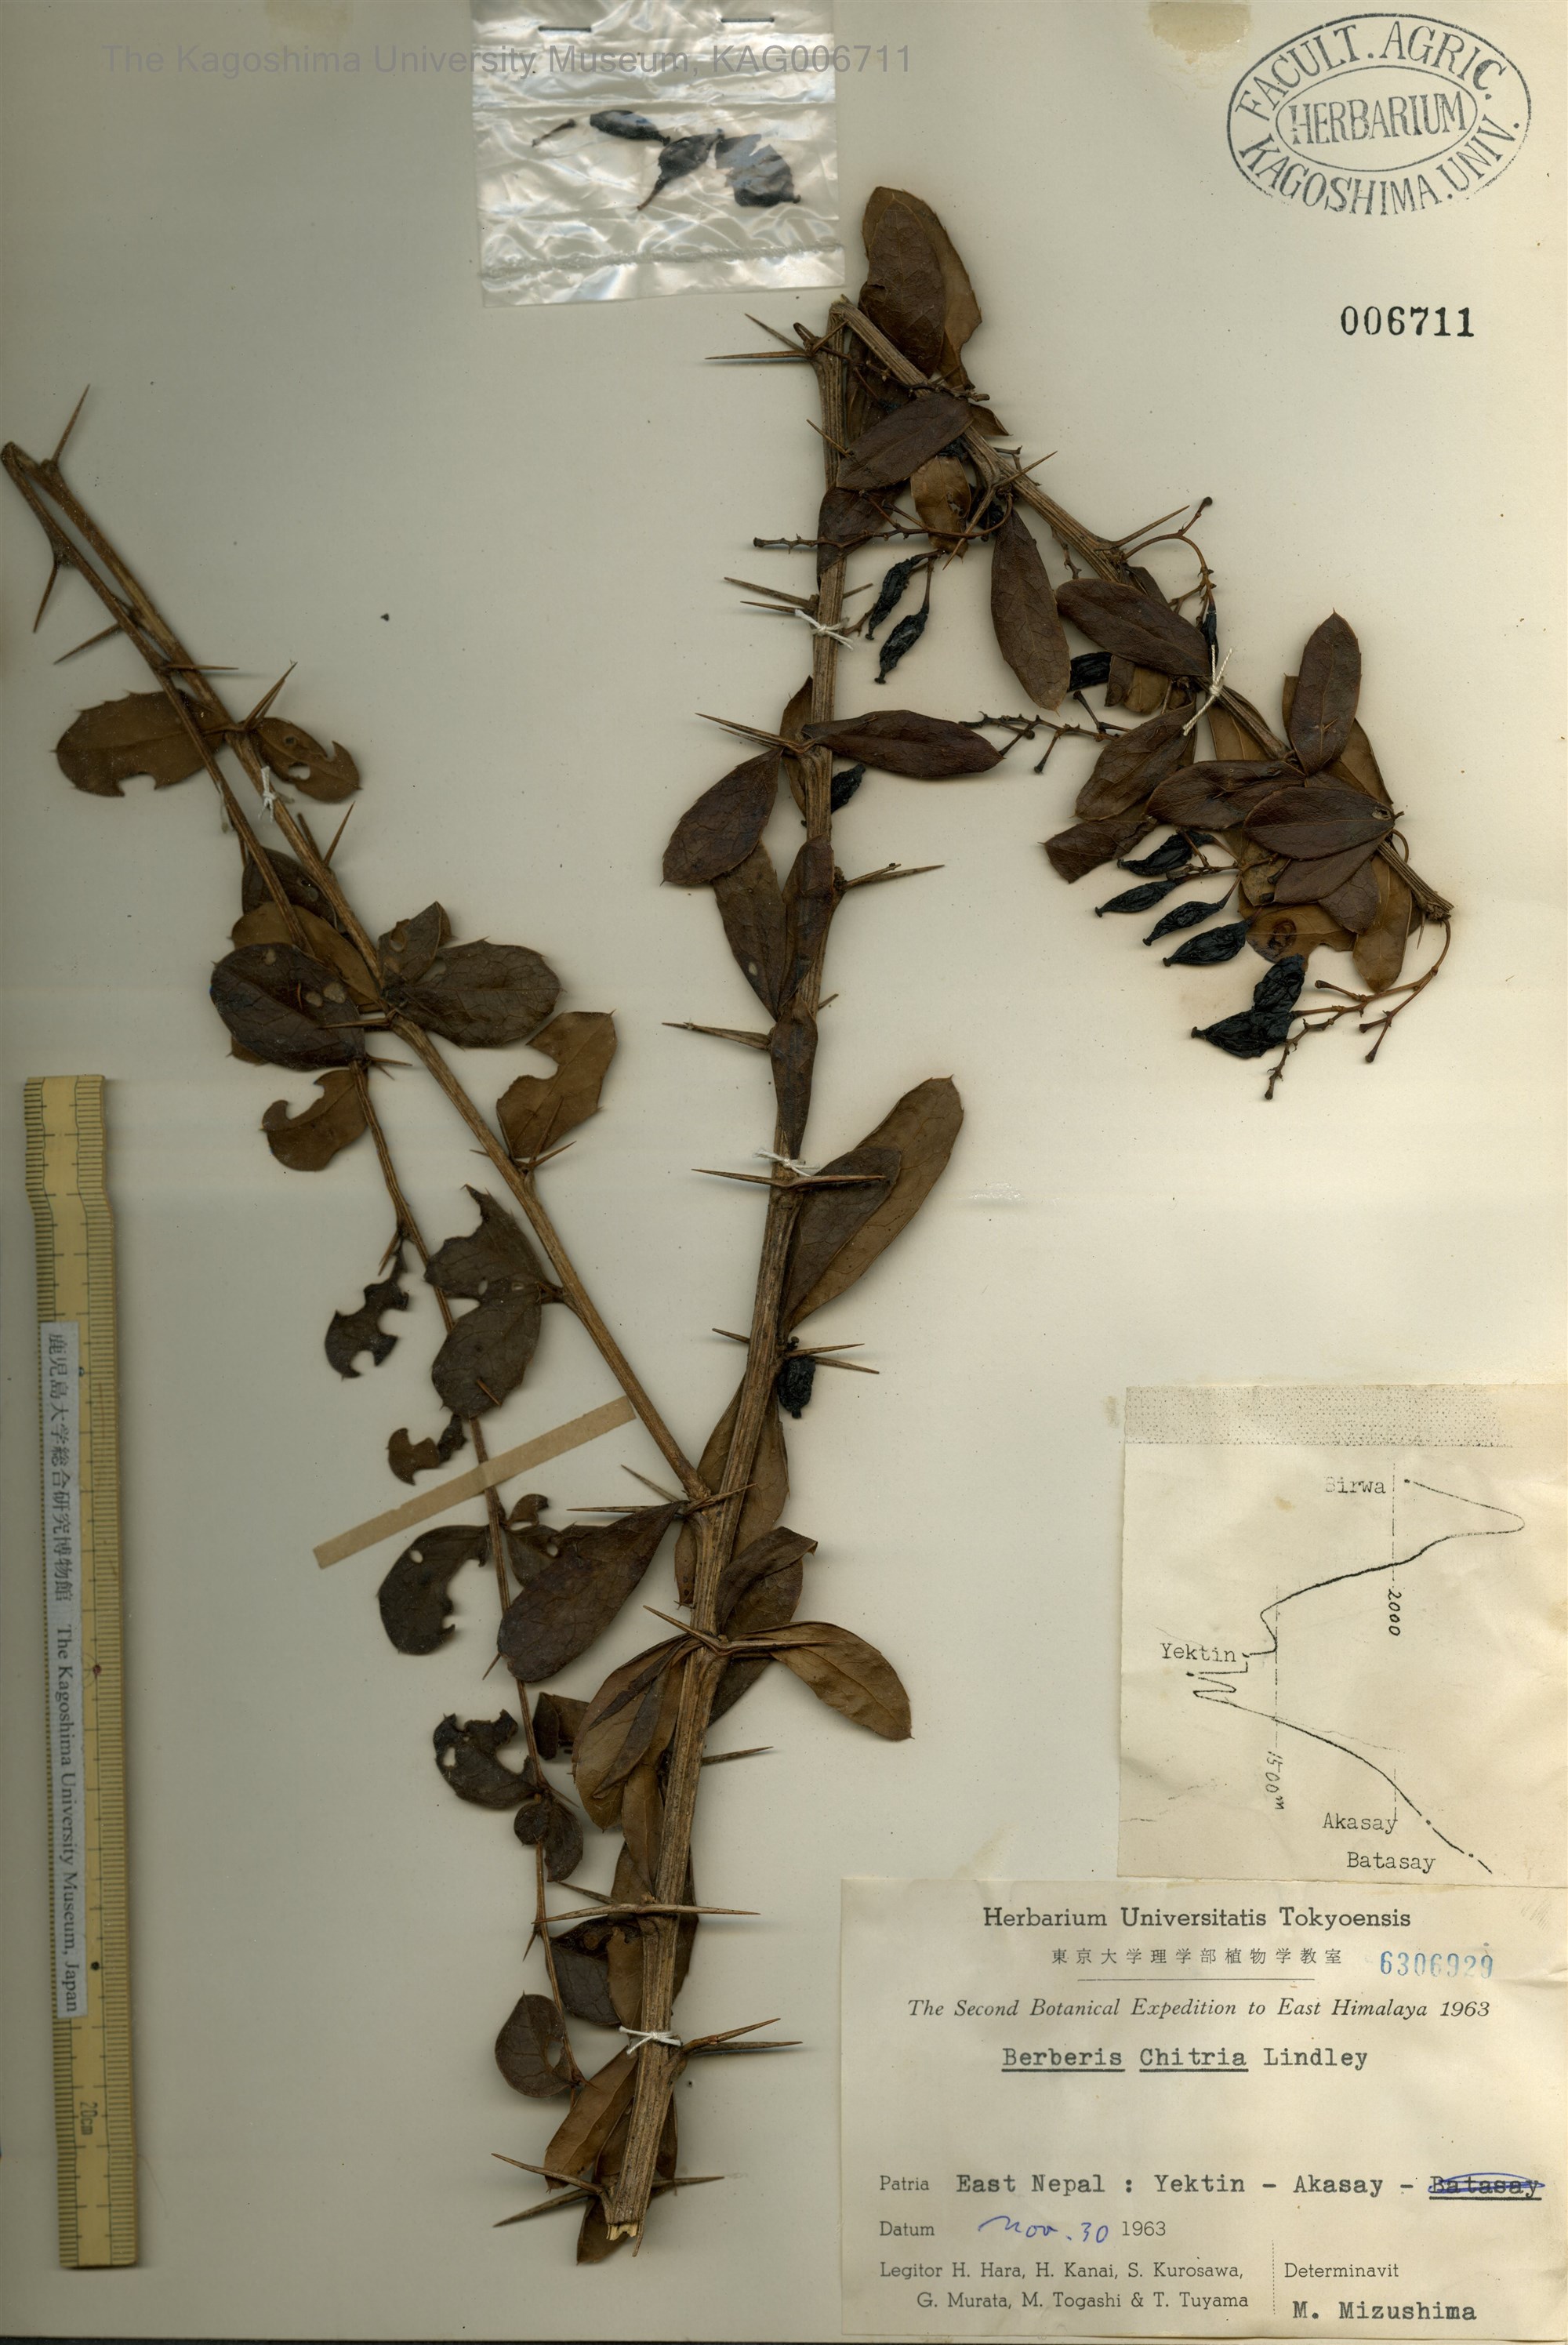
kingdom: Plantae
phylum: Tracheophyta
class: Magnoliopsida
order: Ranunculales
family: Berberidaceae
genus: Berberis
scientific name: Berberis chitria
